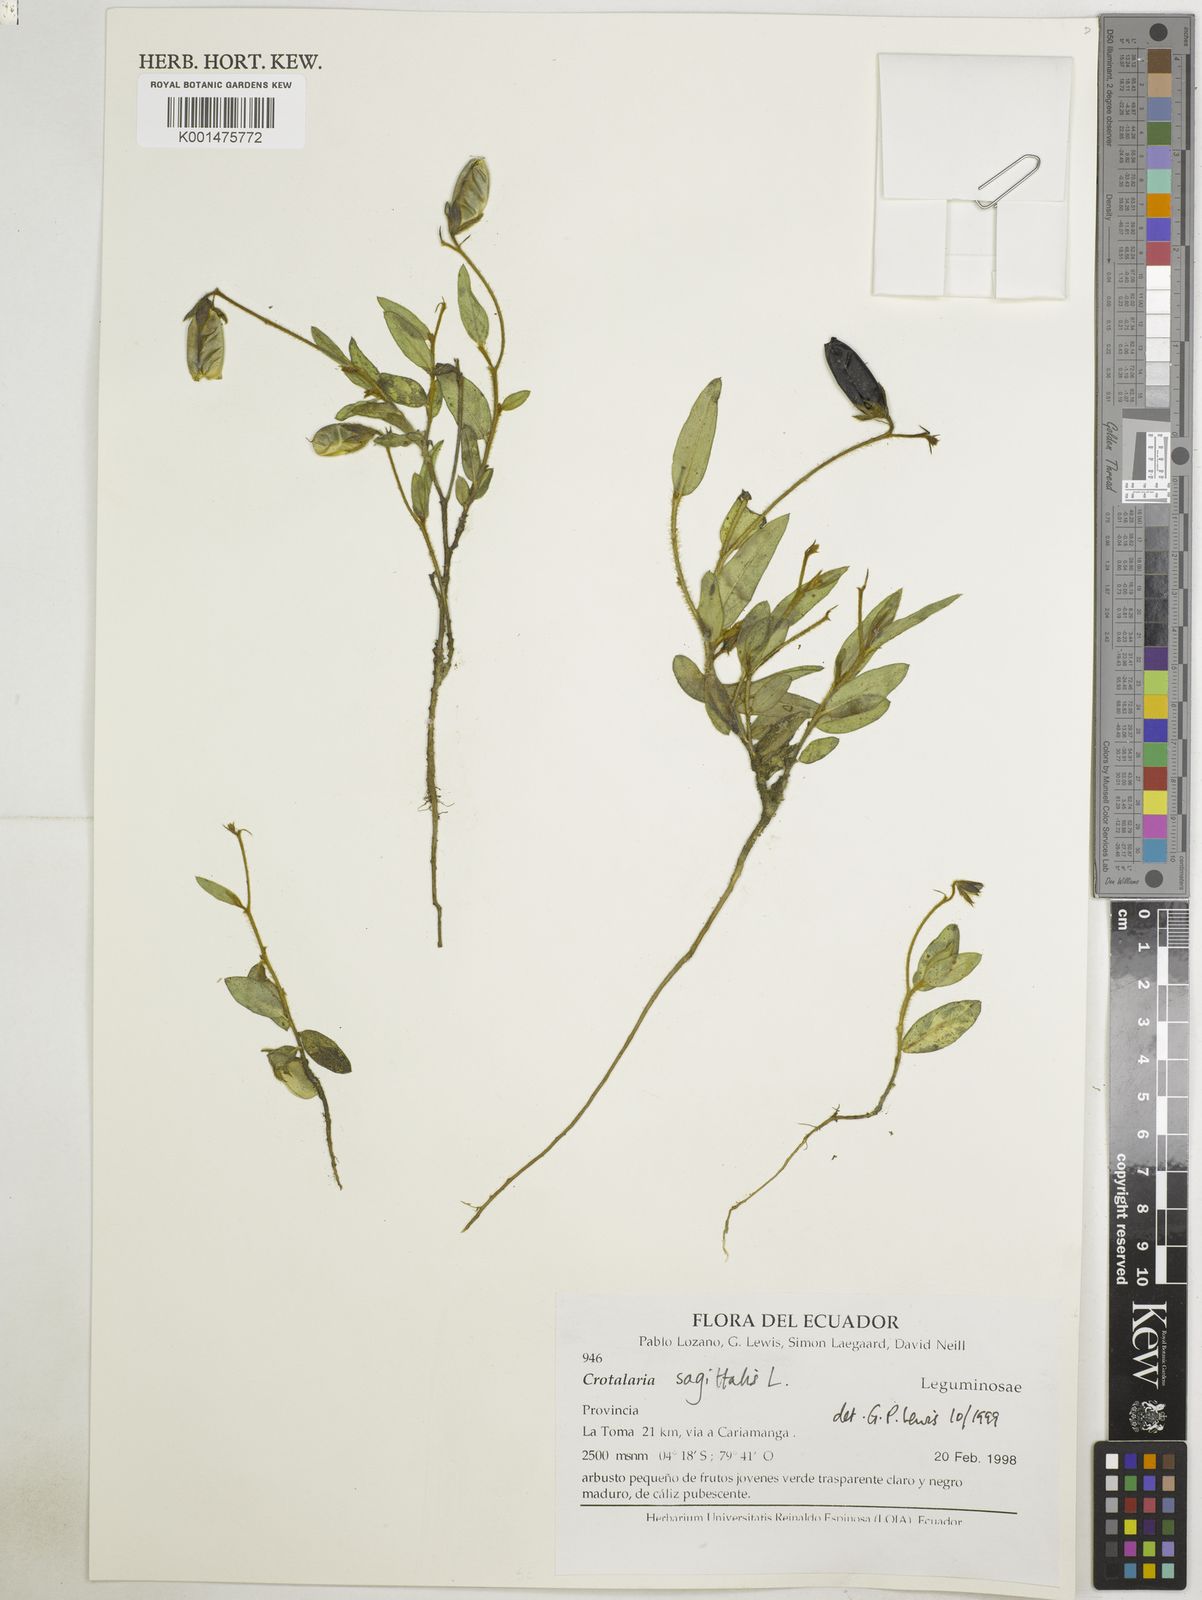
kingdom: Plantae
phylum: Tracheophyta
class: Magnoliopsida
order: Fabales
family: Fabaceae
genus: Crotalaria
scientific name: Crotalaria sagittalis
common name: Arrowhead rattlebox
